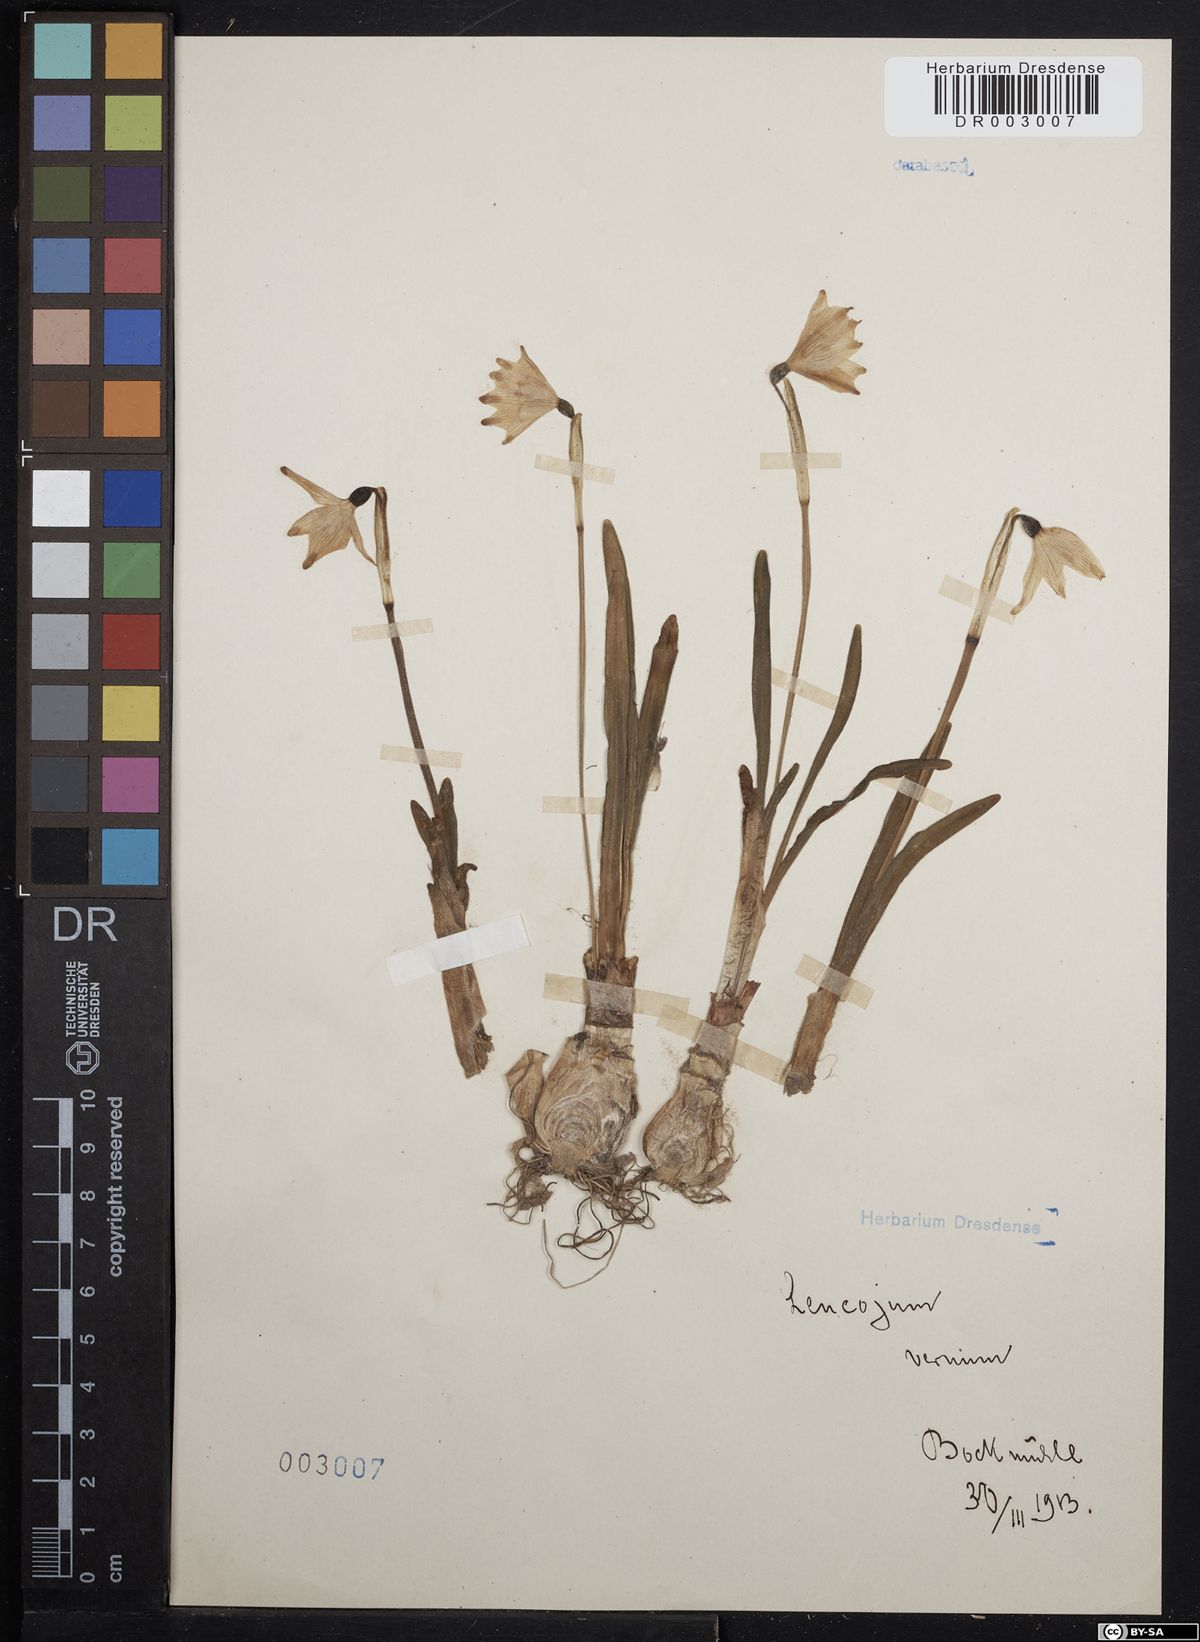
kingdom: Plantae
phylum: Tracheophyta
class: Liliopsida
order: Asparagales
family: Amaryllidaceae
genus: Leucojum
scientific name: Leucojum vernum
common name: Spring snowflake
